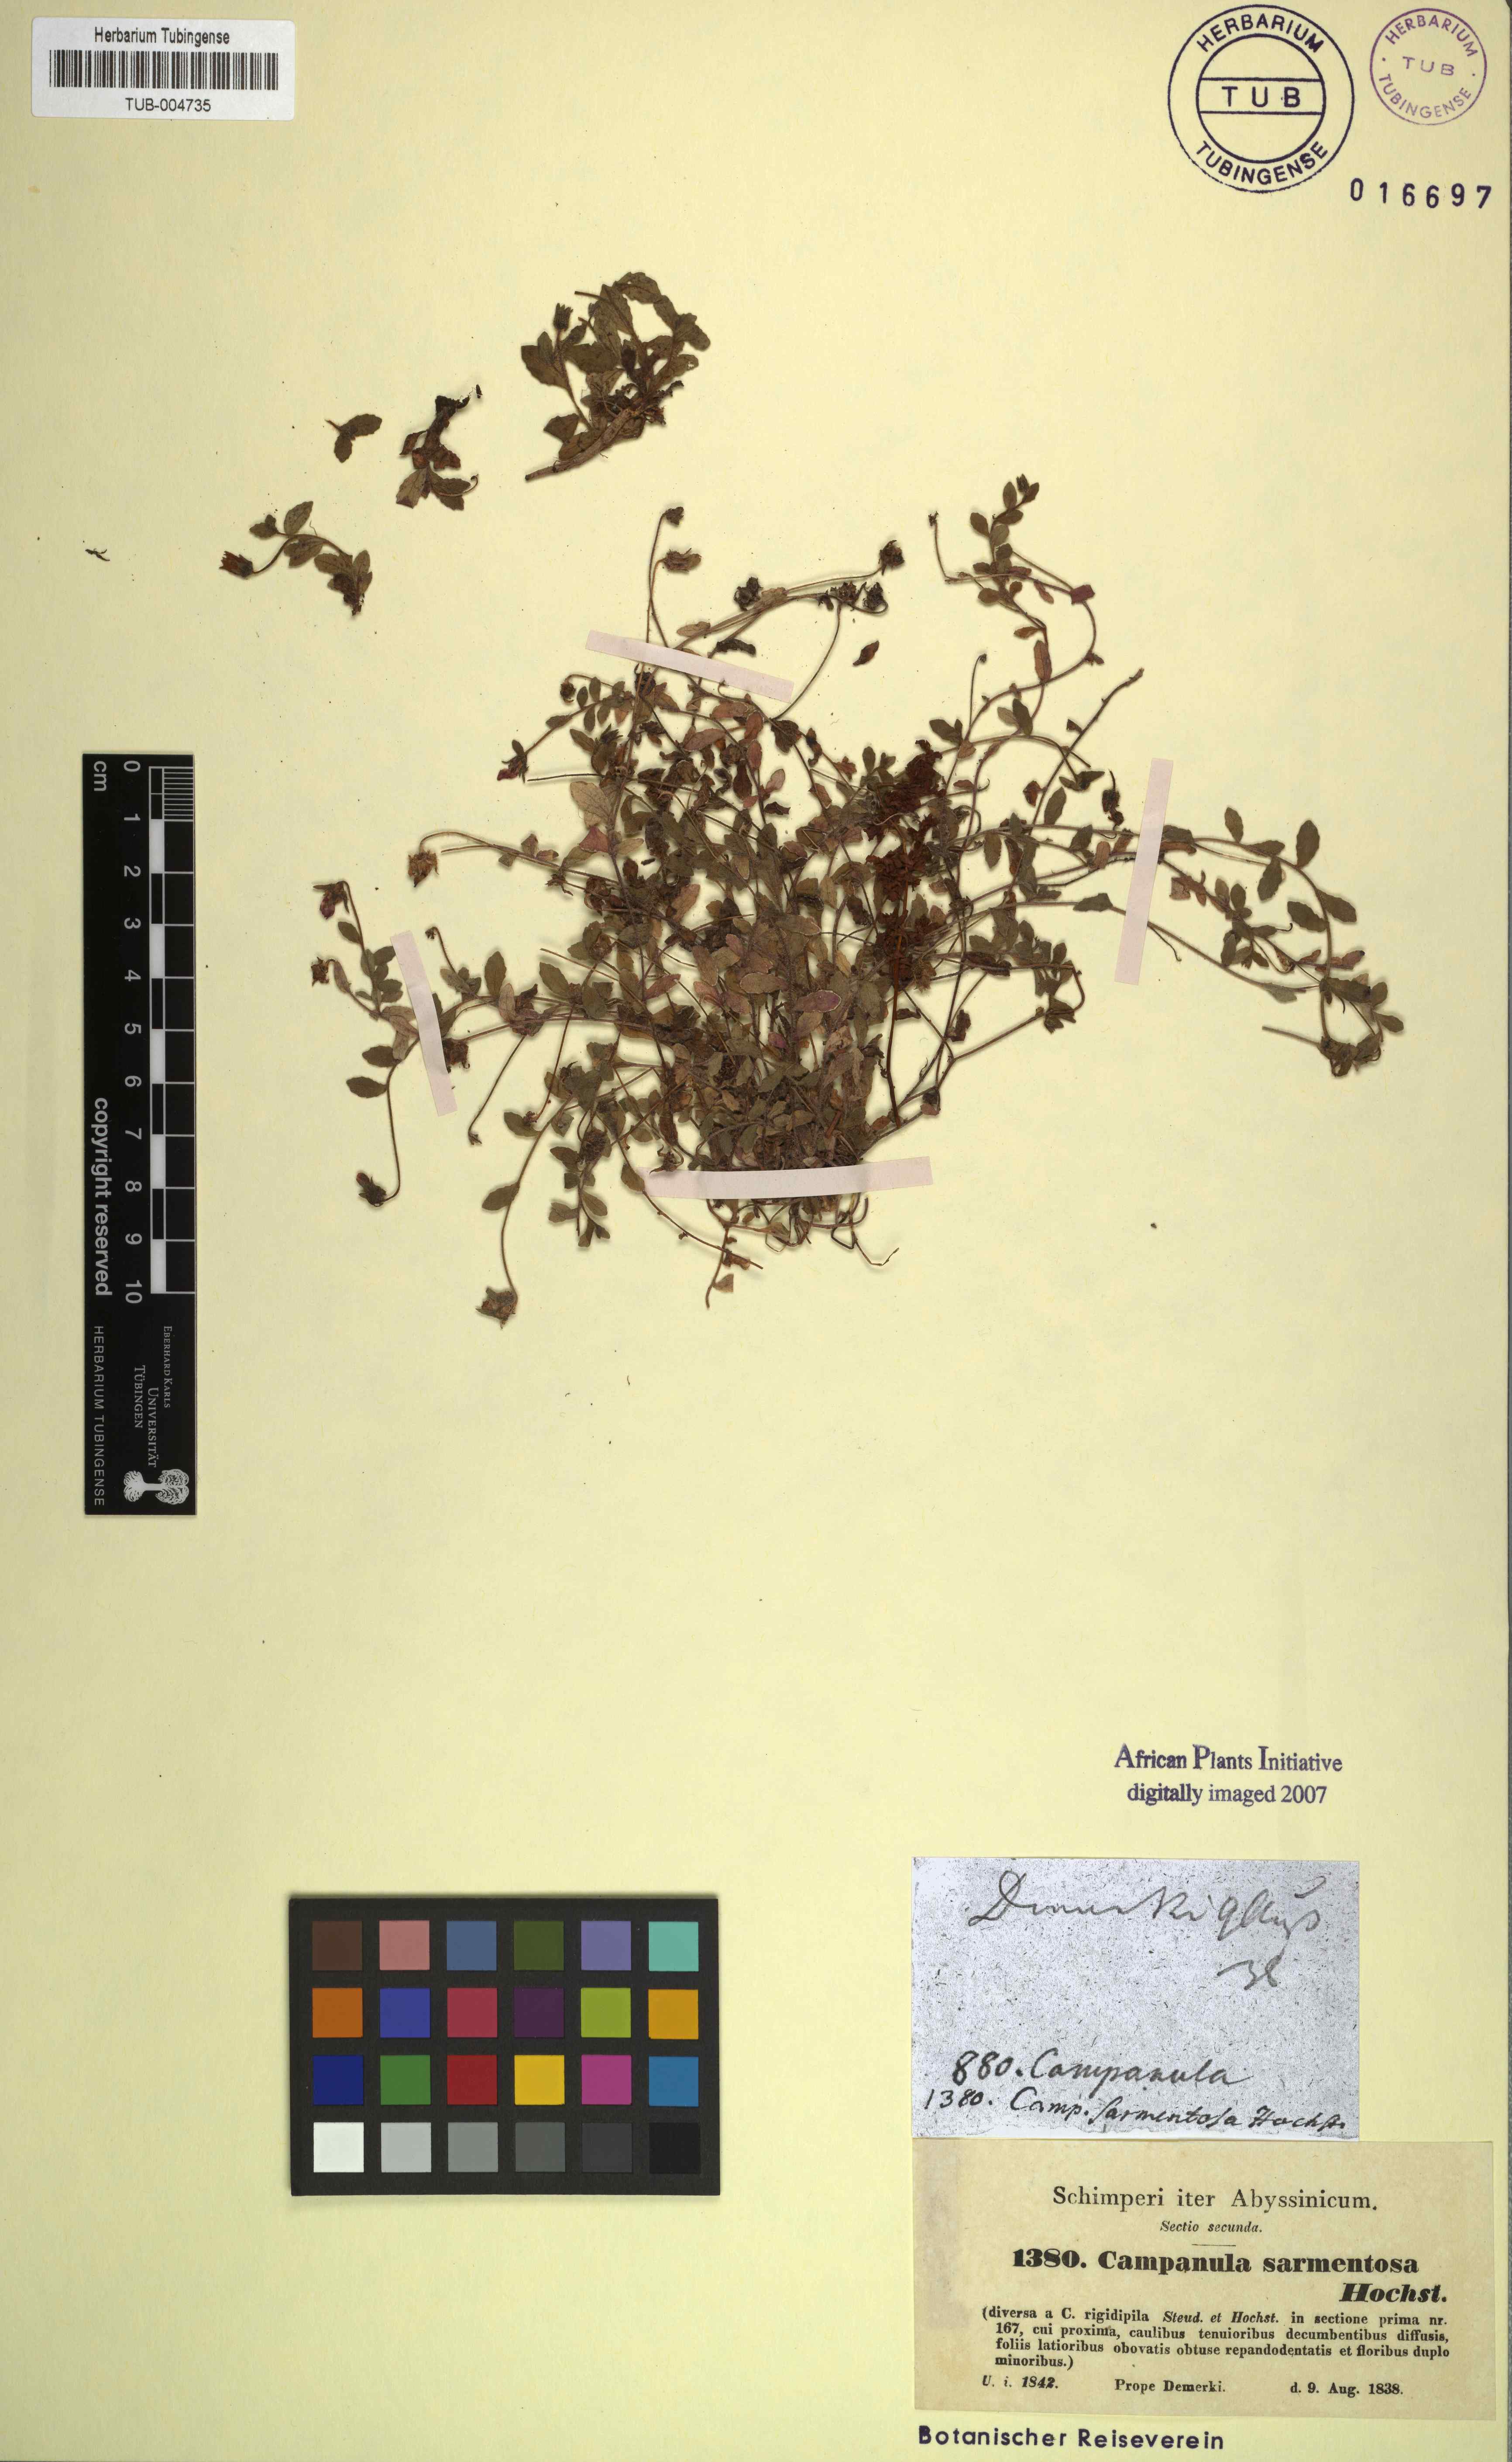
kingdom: Plantae
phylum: Tracheophyta
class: Magnoliopsida
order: Asterales
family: Campanulaceae
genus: Campanula
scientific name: Campanula edulis
